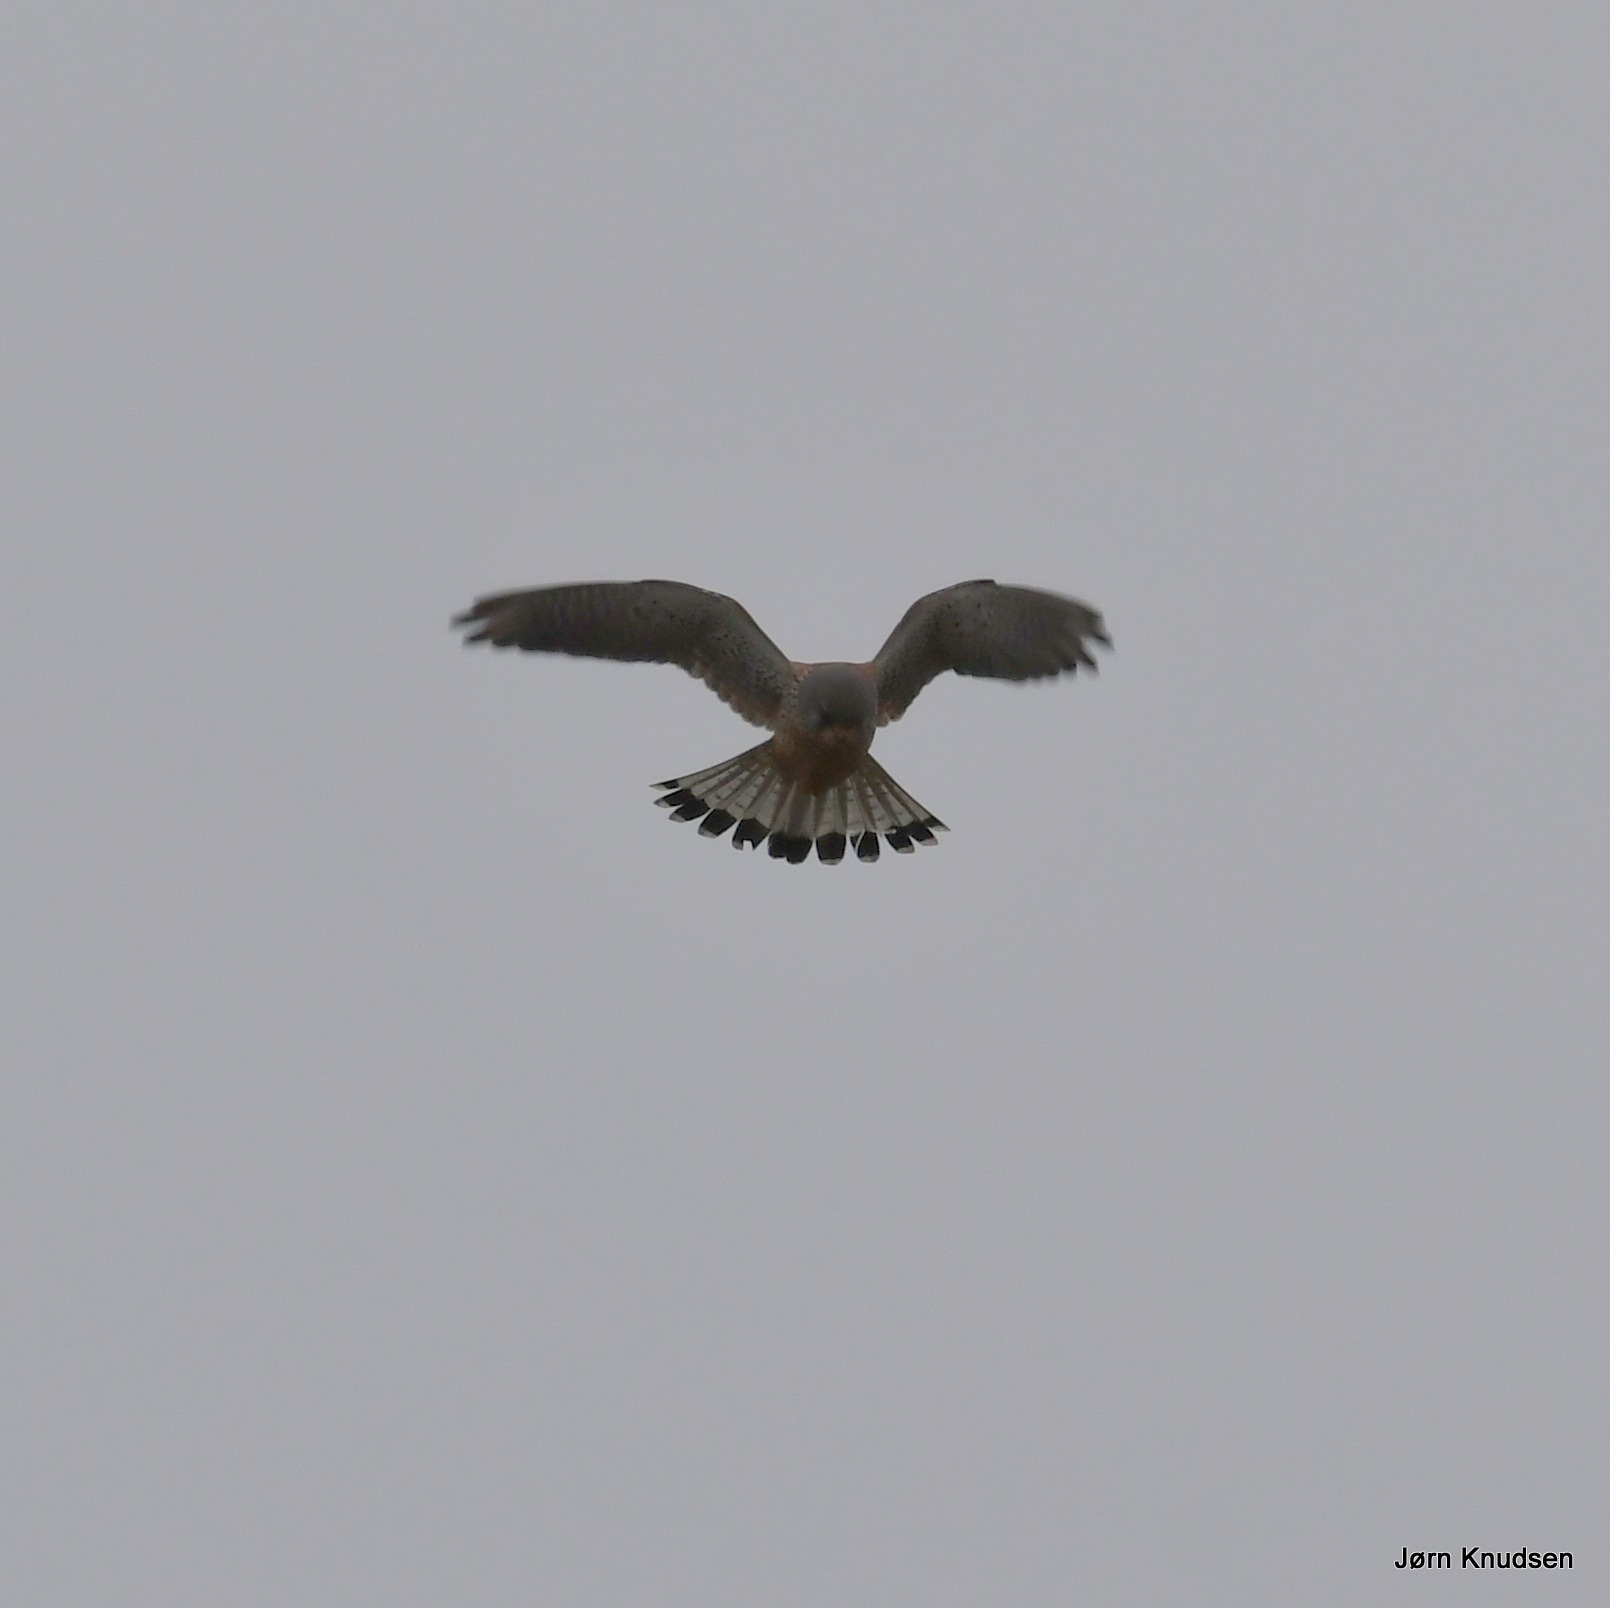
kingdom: Animalia
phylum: Chordata
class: Aves
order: Falconiformes
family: Falconidae
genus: Falco
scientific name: Falco tinnunculus
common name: Tårnfalk
